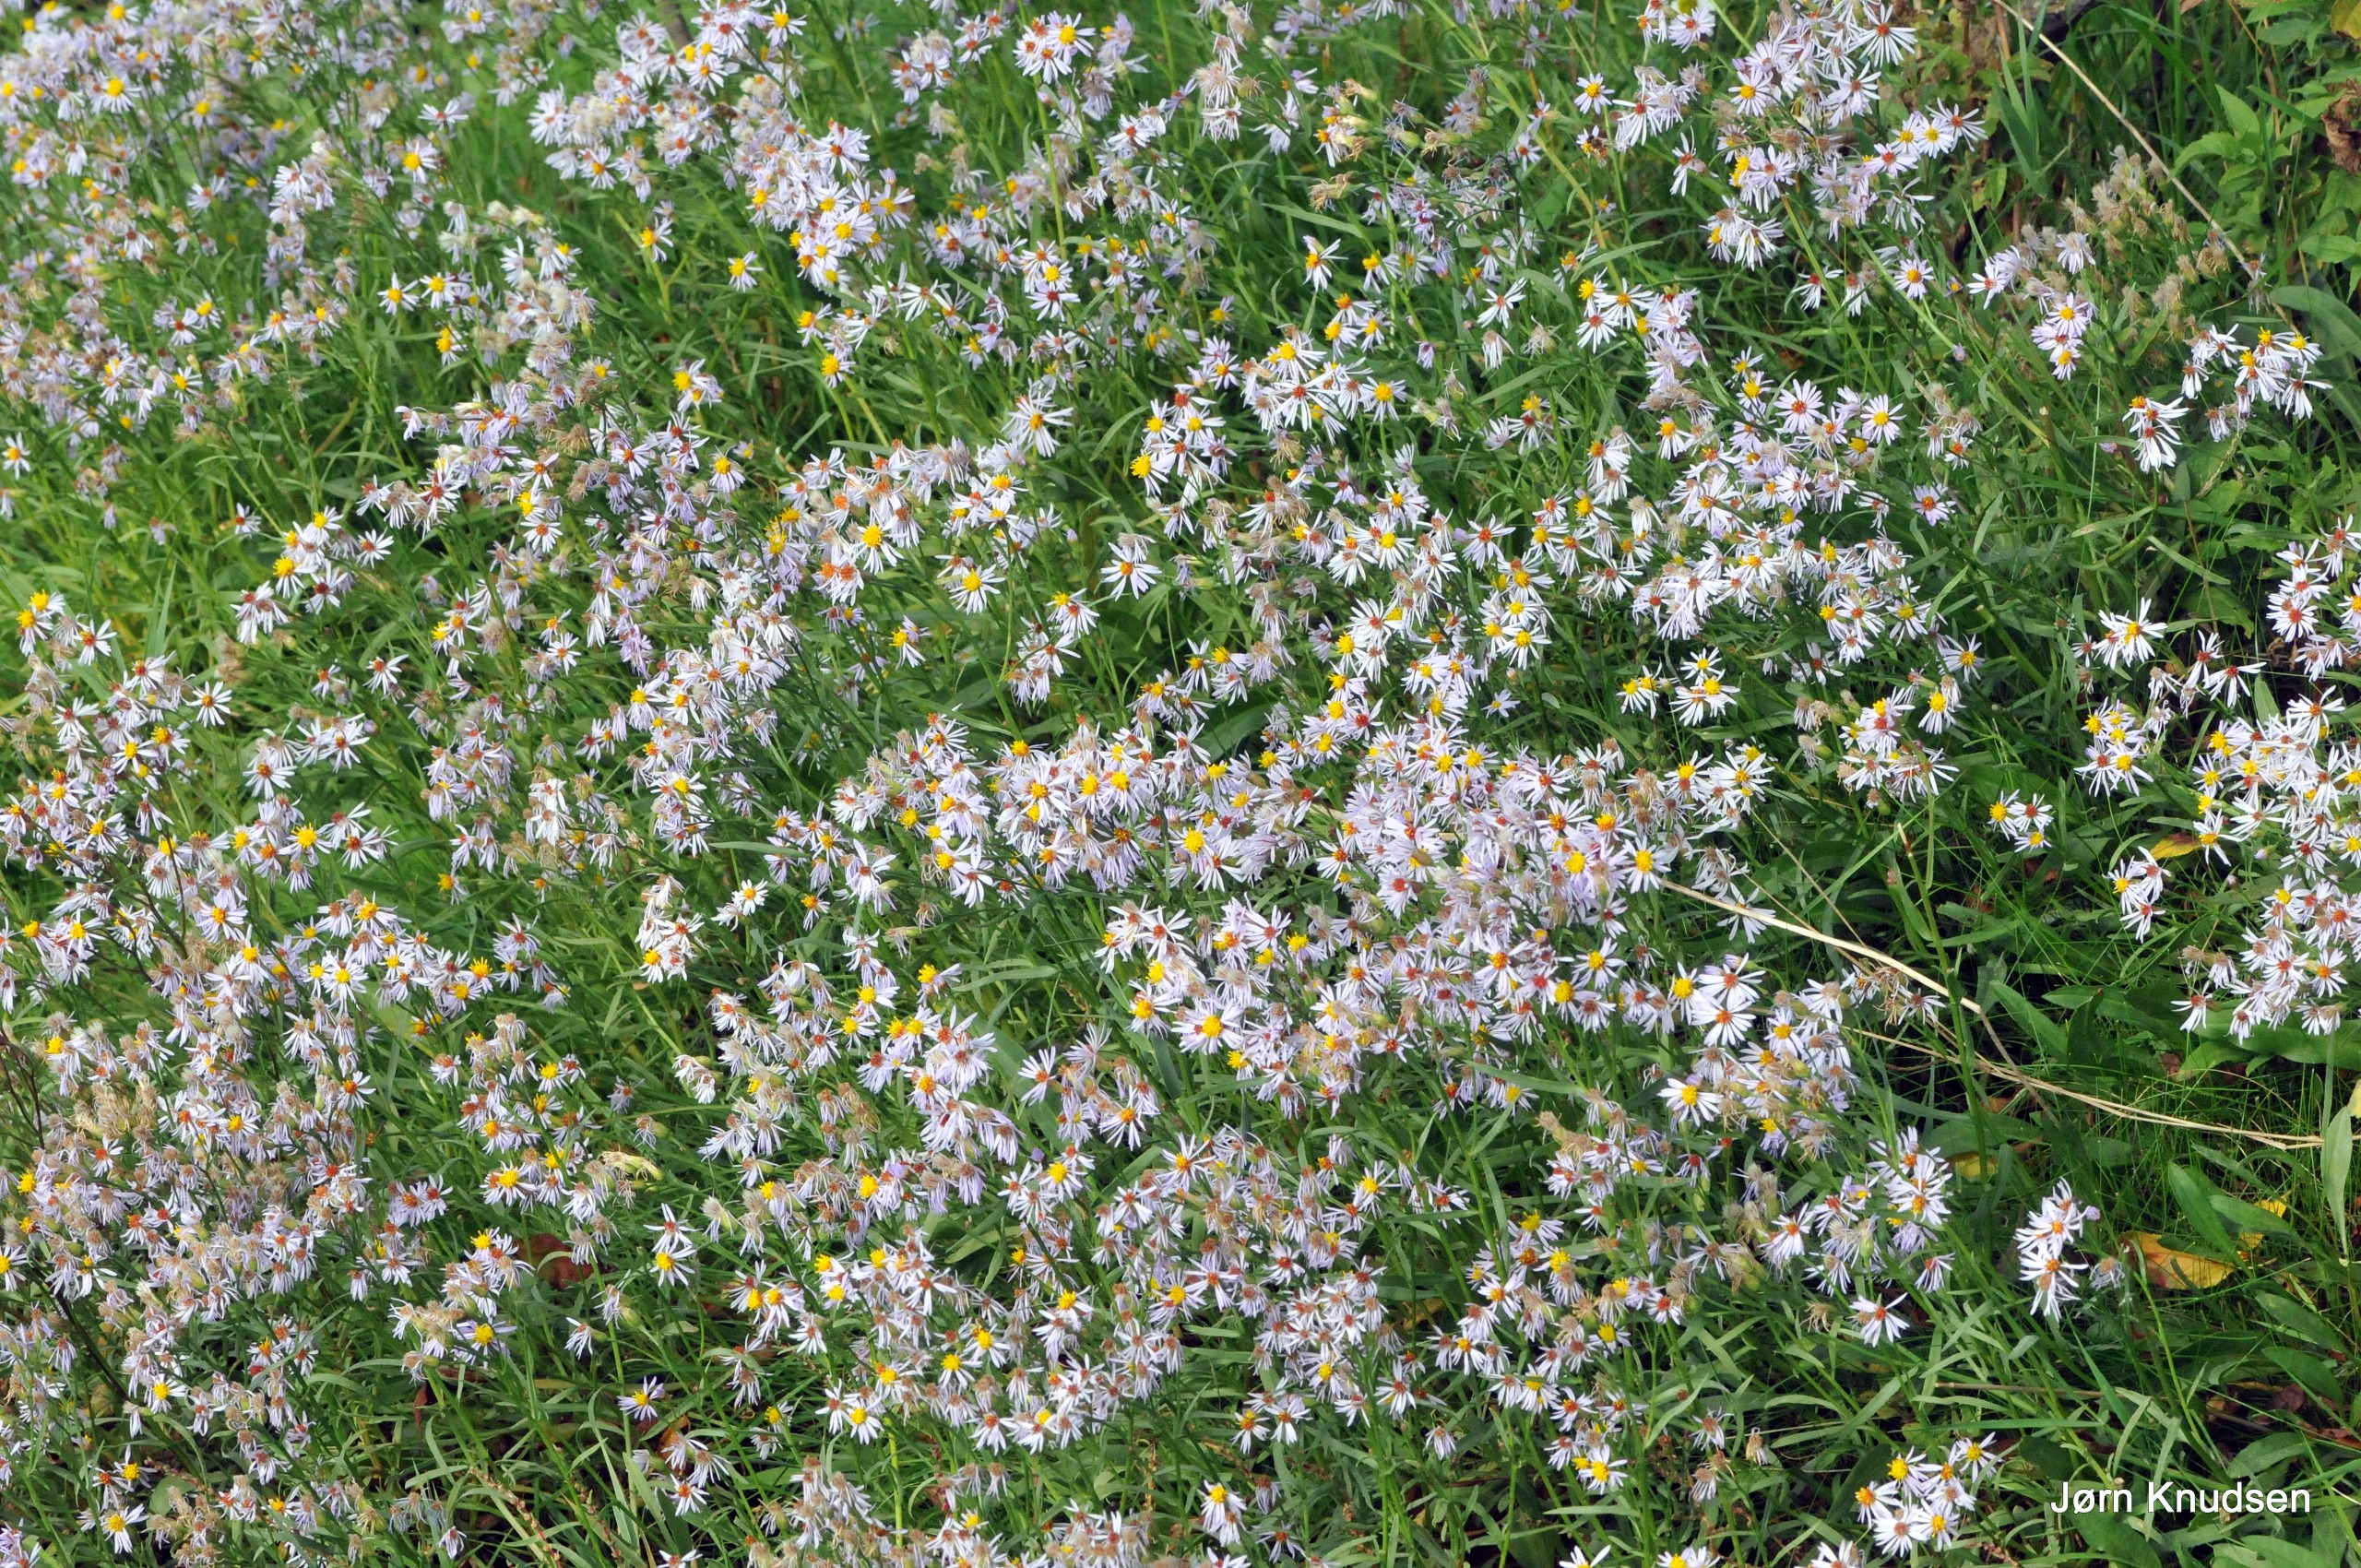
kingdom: Plantae
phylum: Tracheophyta
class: Magnoliopsida
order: Asterales
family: Asteraceae
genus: Tripolium
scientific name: Tripolium pannonicum
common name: Strandasters (underart)
